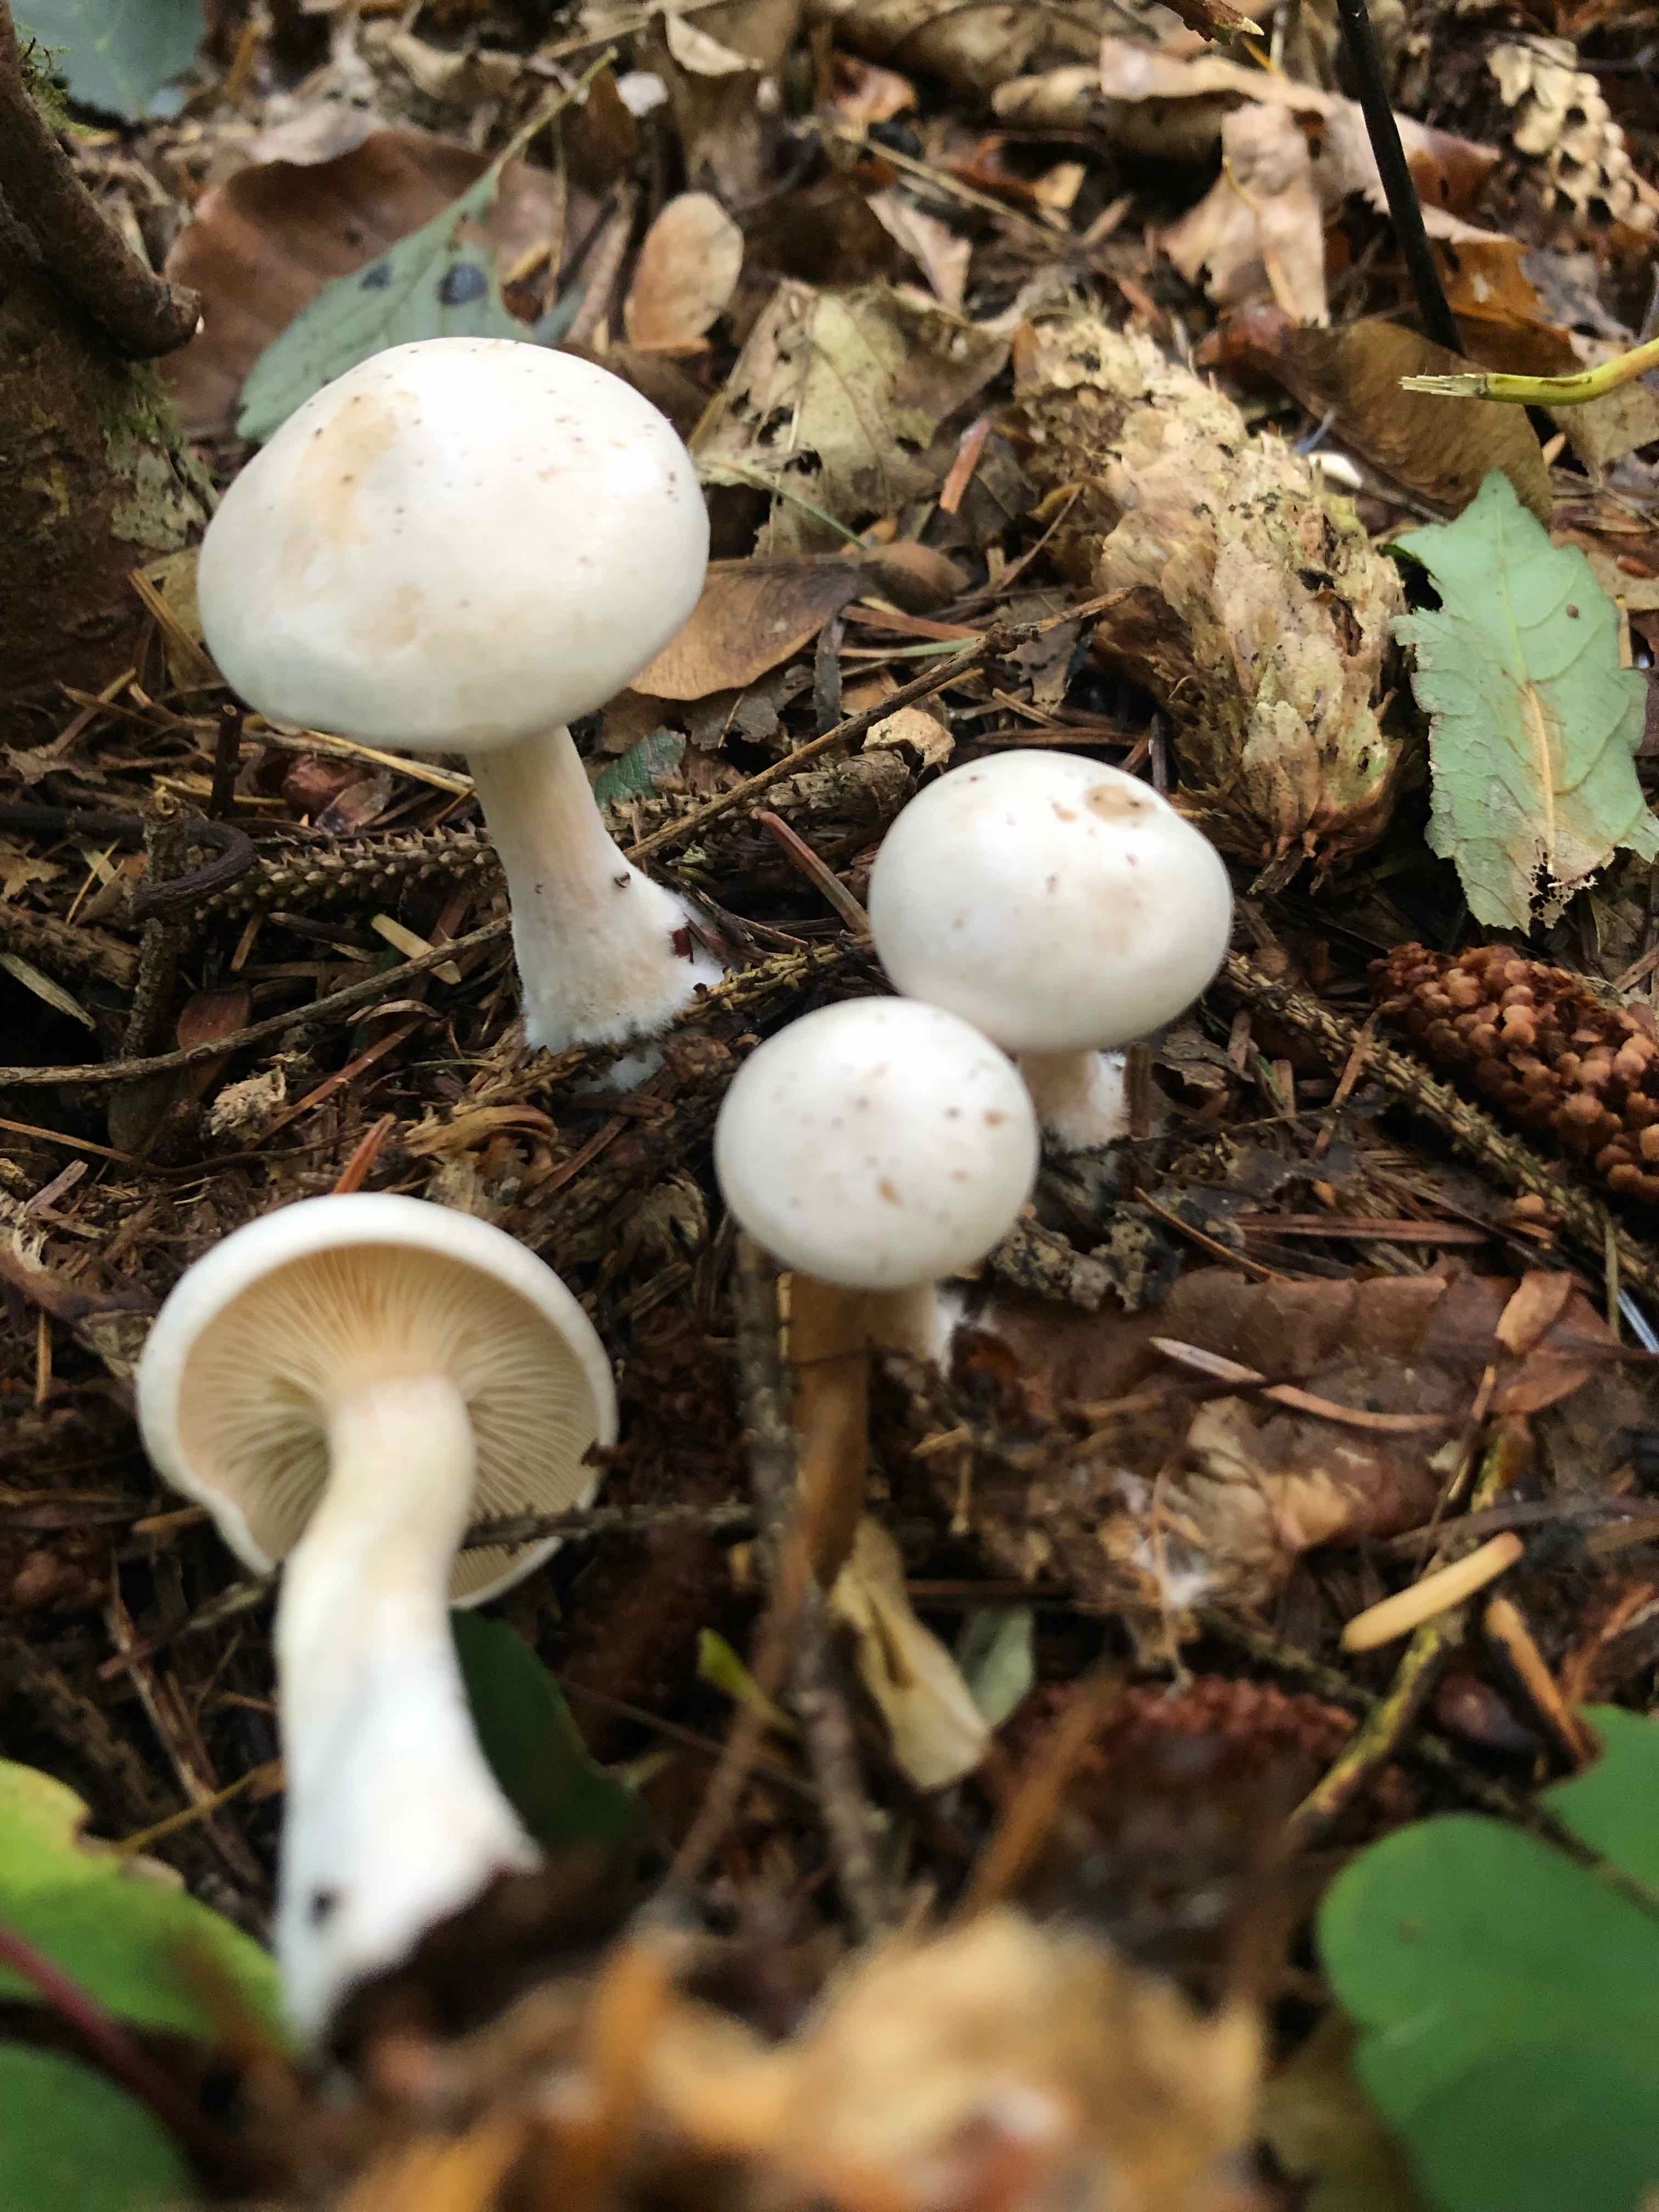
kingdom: Fungi
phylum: Basidiomycota
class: Agaricomycetes
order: Agaricales
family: Tricholomataceae
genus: Clitocybe
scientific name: Clitocybe phyllophila
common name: løv-tragthat
